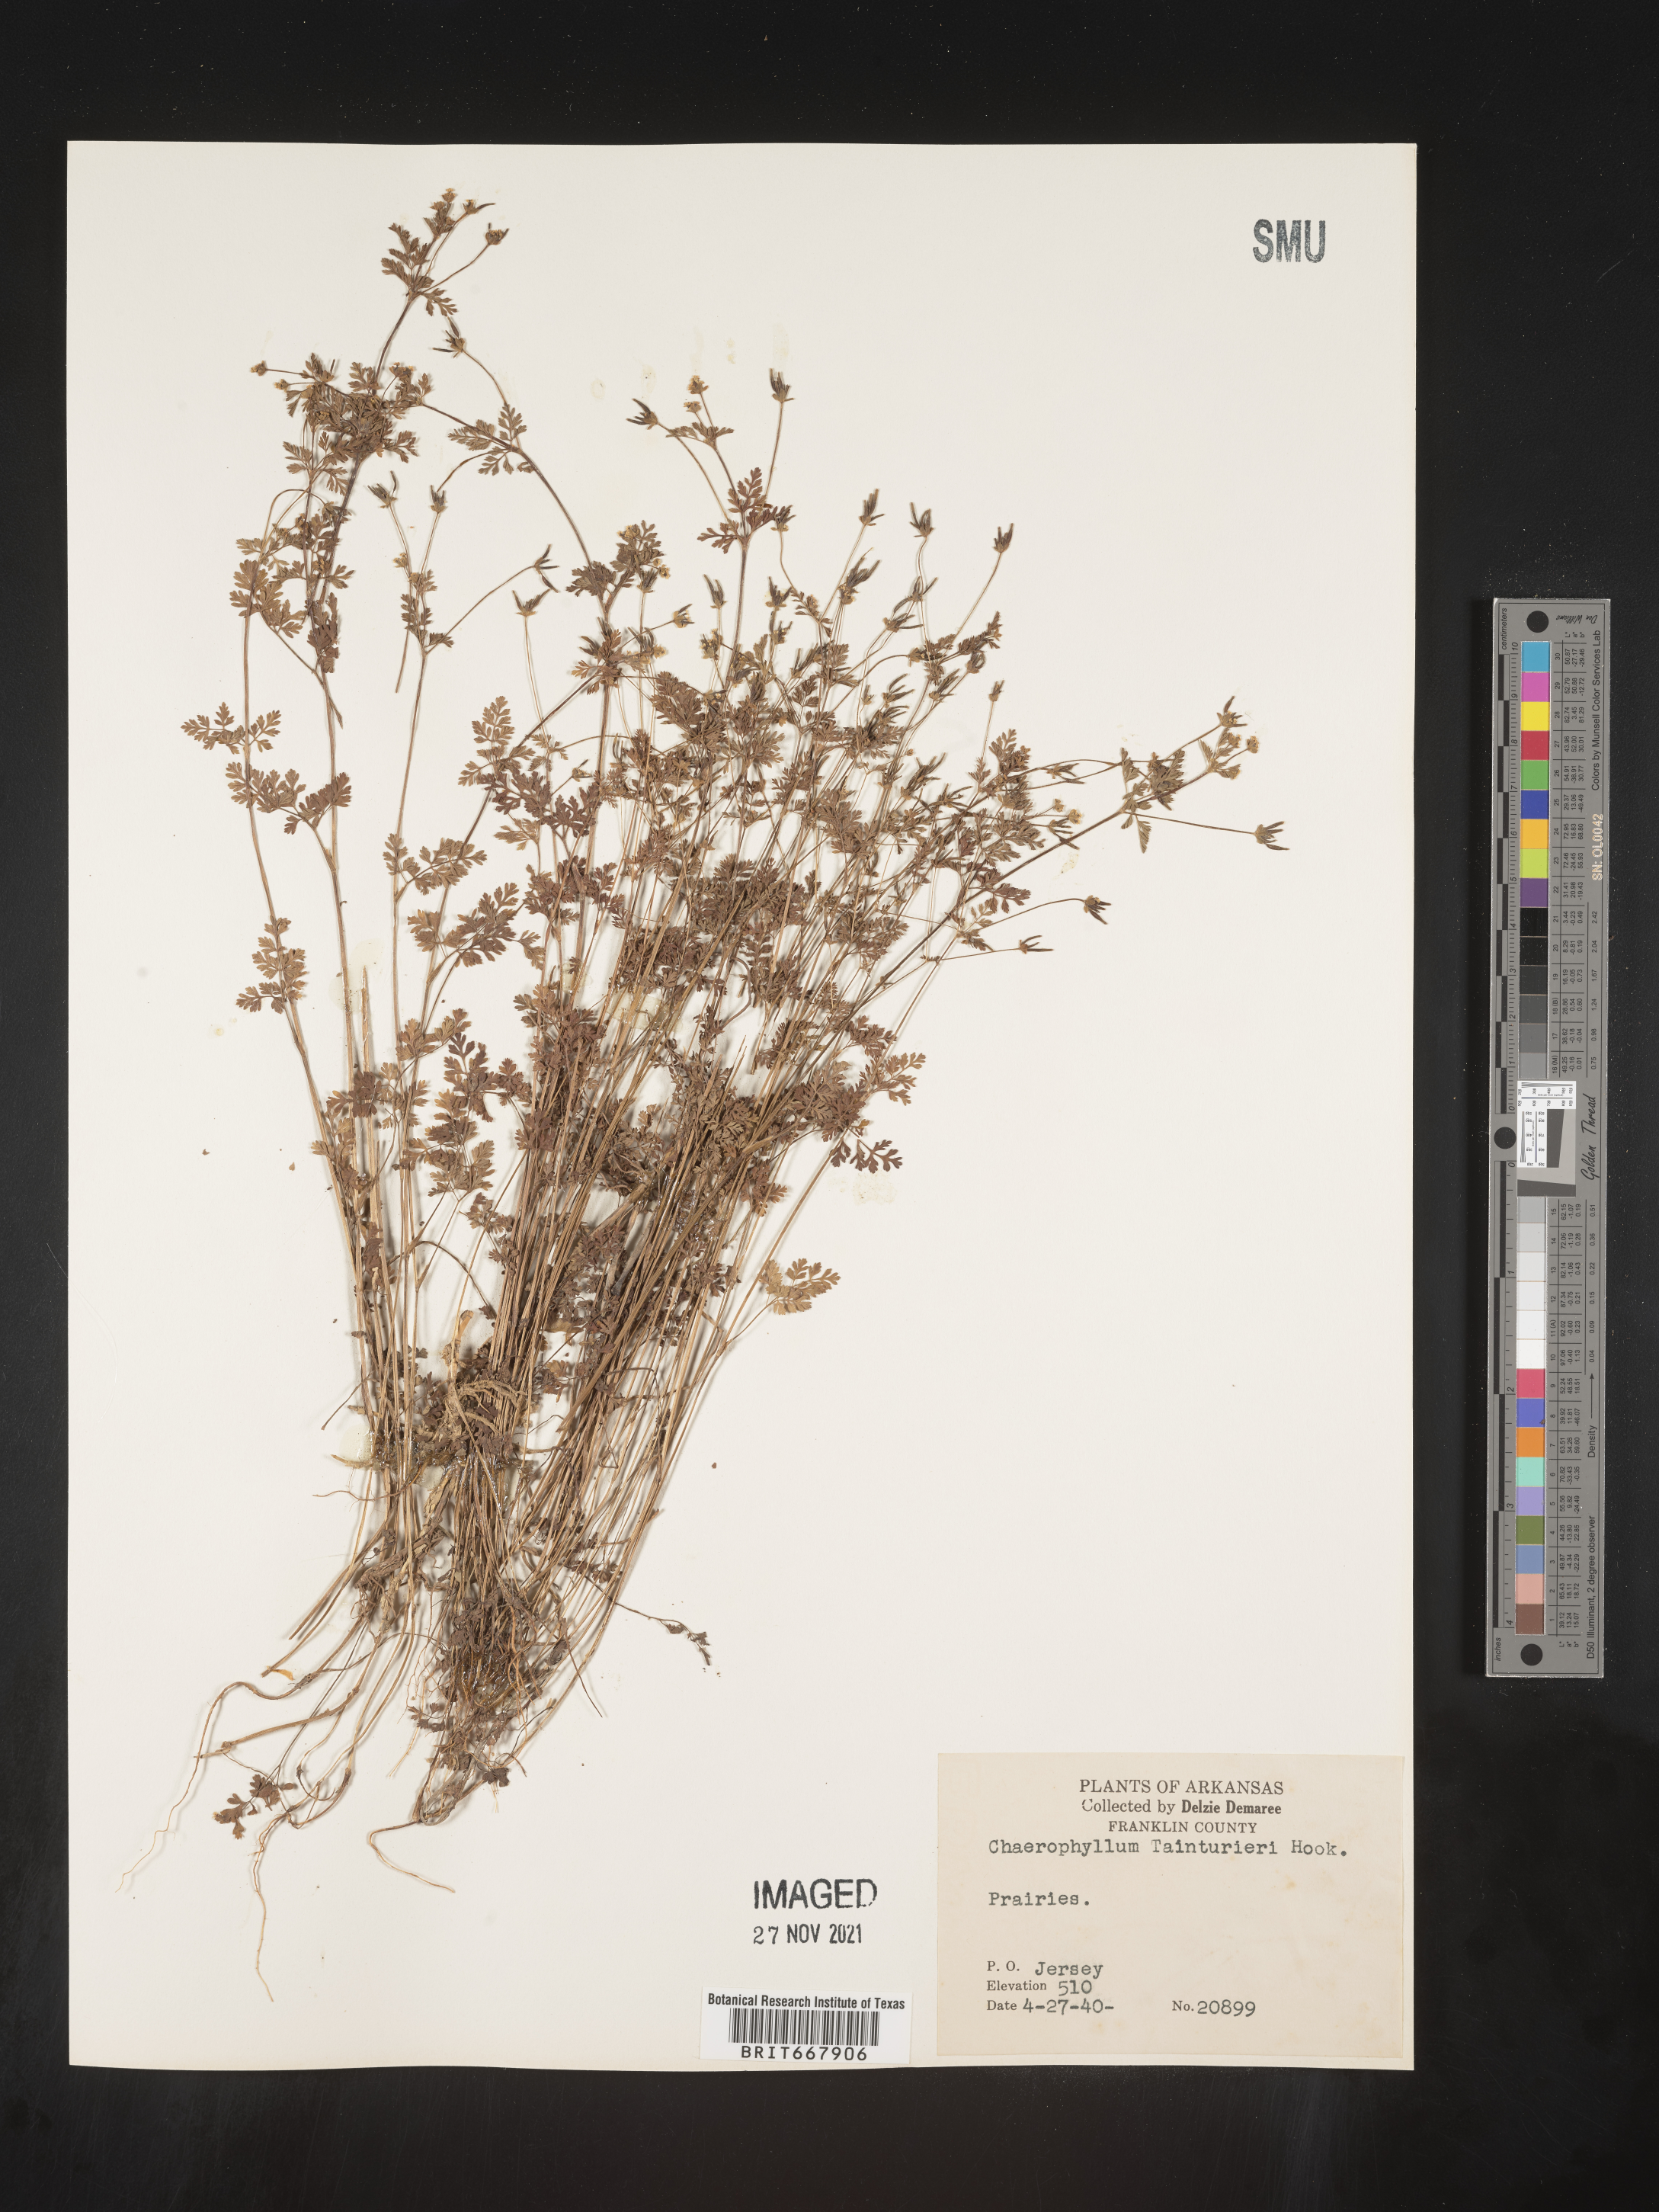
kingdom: Plantae
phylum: Tracheophyta
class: Magnoliopsida
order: Apiales
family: Apiaceae
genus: Chaerophyllum
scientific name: Chaerophyllum tainturieri
